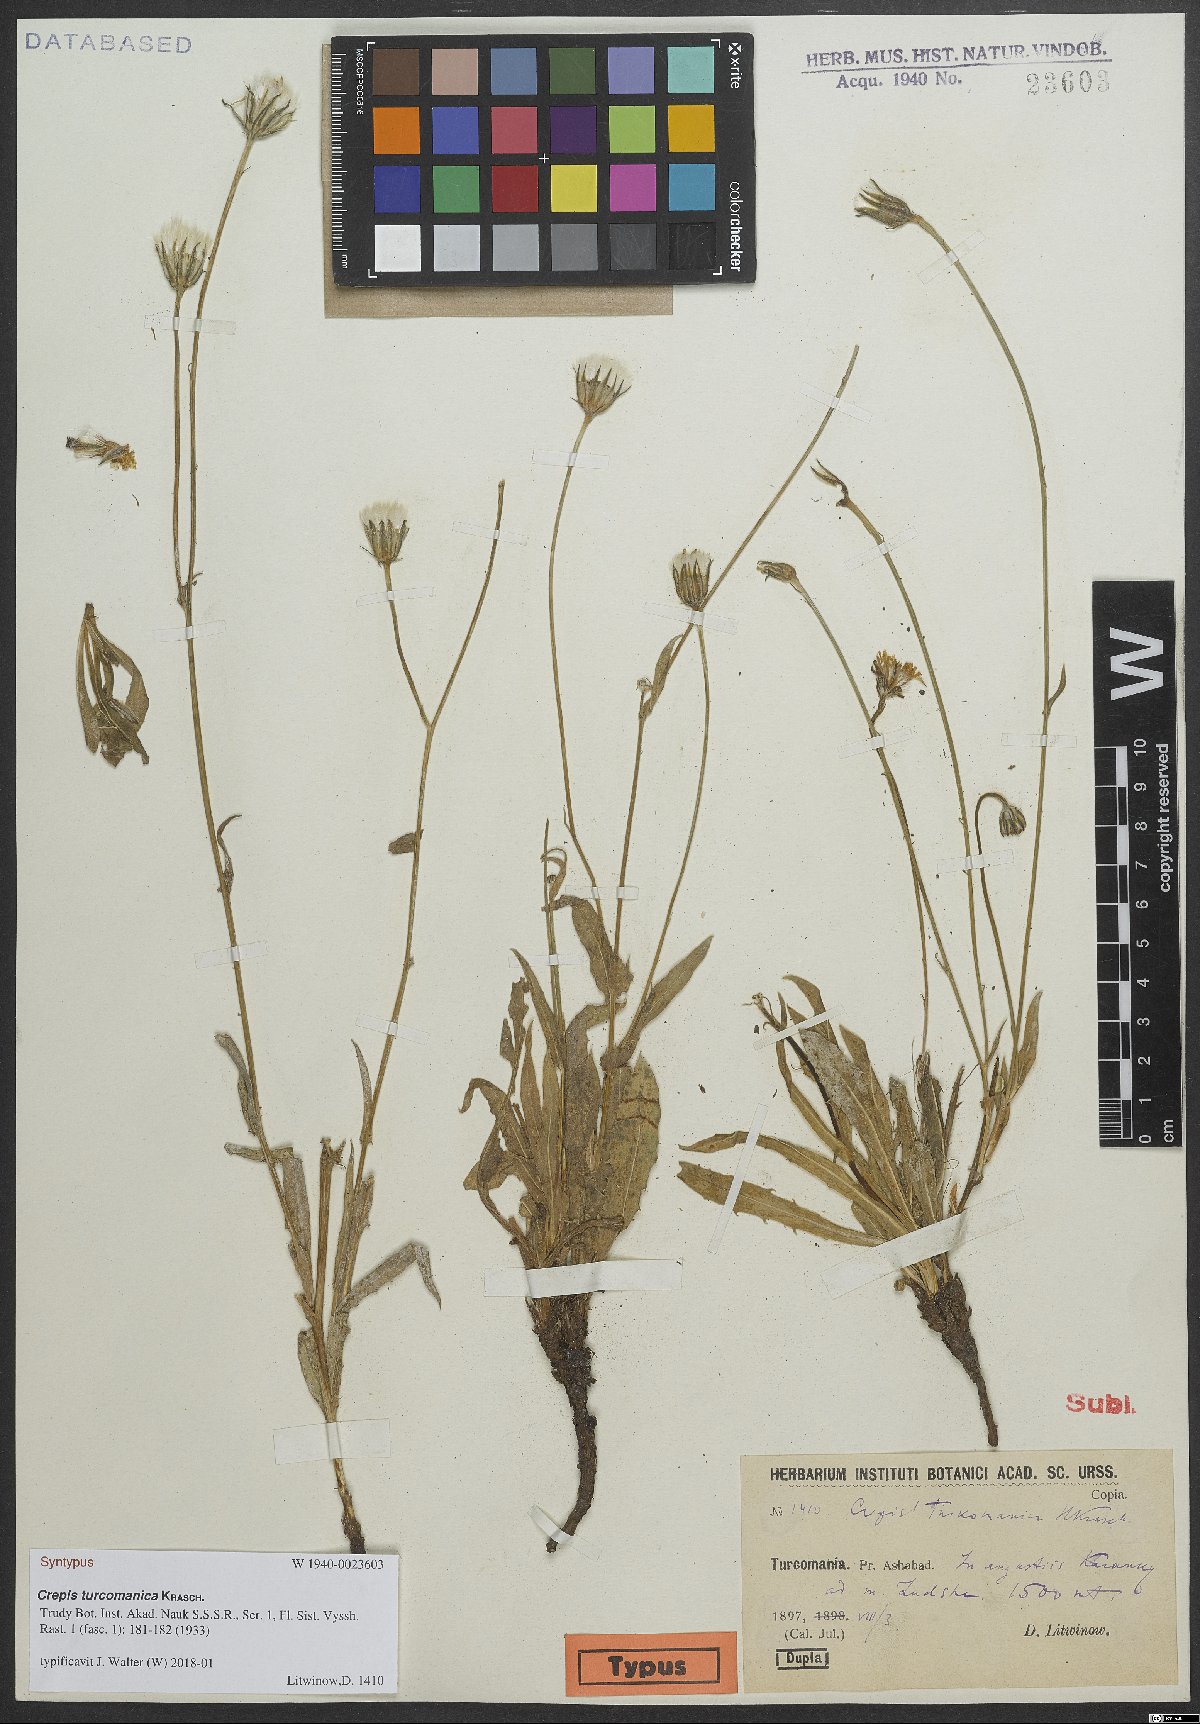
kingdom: Plantae
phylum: Tracheophyta
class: Magnoliopsida
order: Asterales
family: Asteraceae
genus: Crepis
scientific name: Crepis turcomanica
